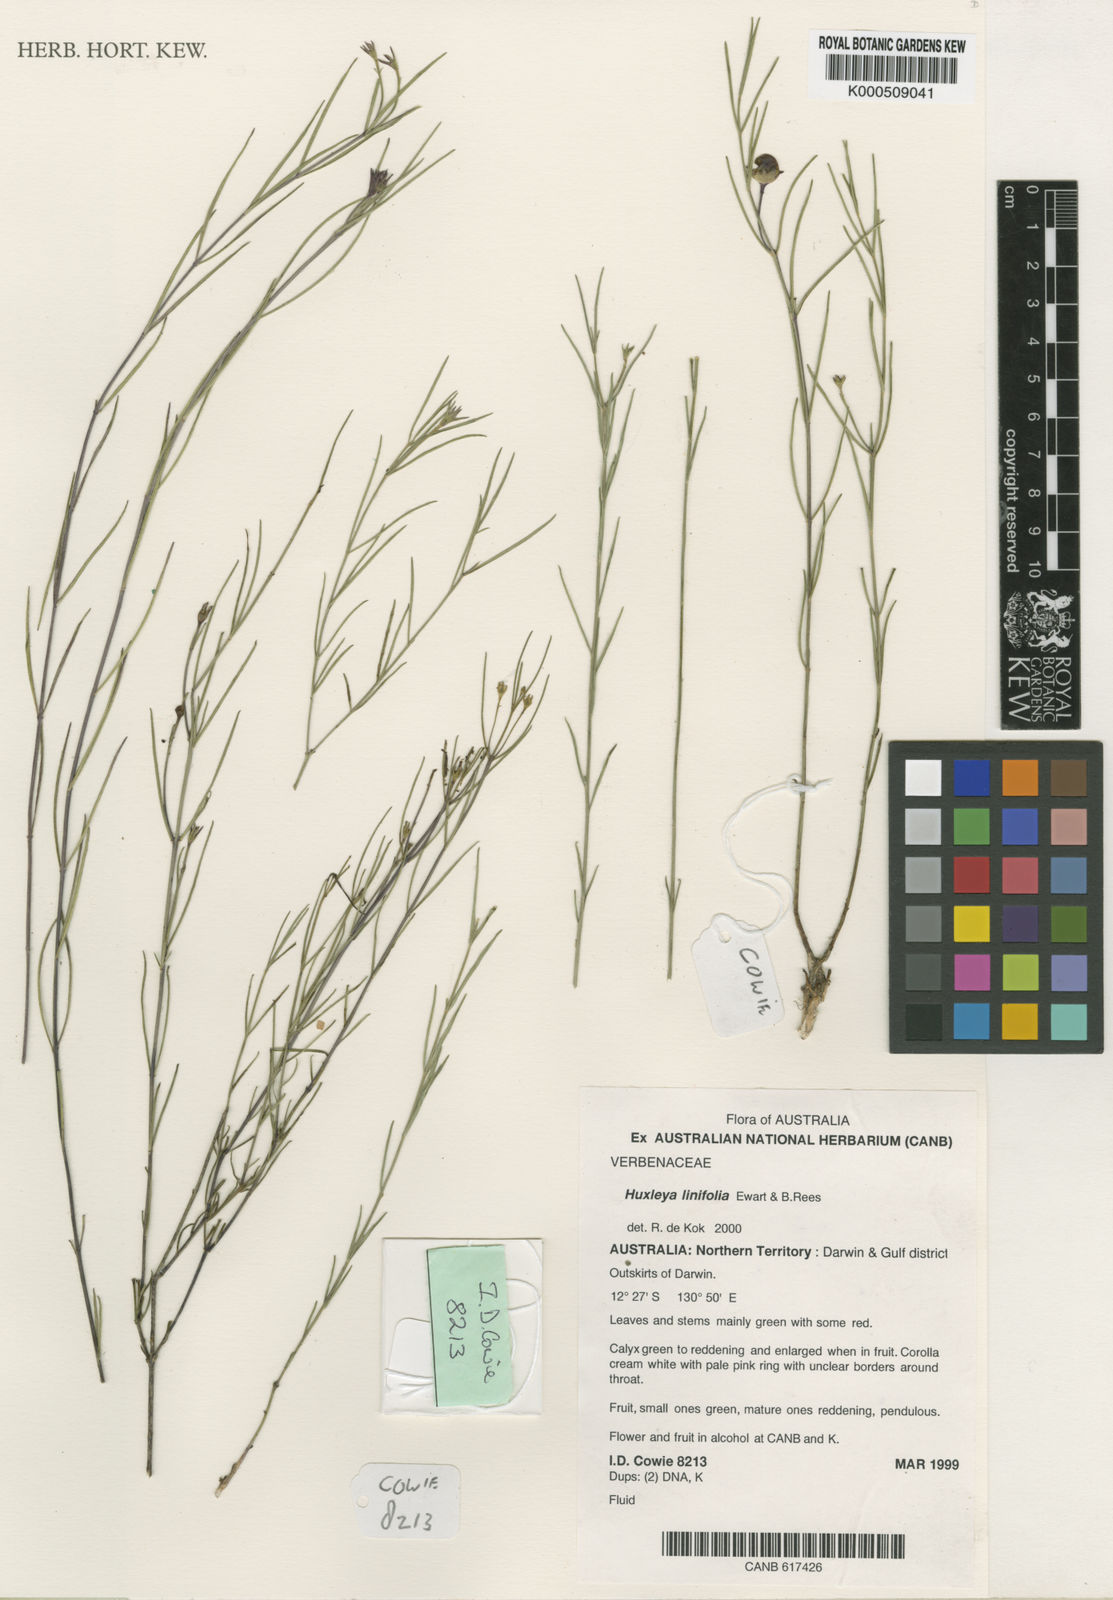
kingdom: Plantae
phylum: Tracheophyta
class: Magnoliopsida
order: Lamiales
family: Lamiaceae
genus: Volkameria
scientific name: Volkameria
